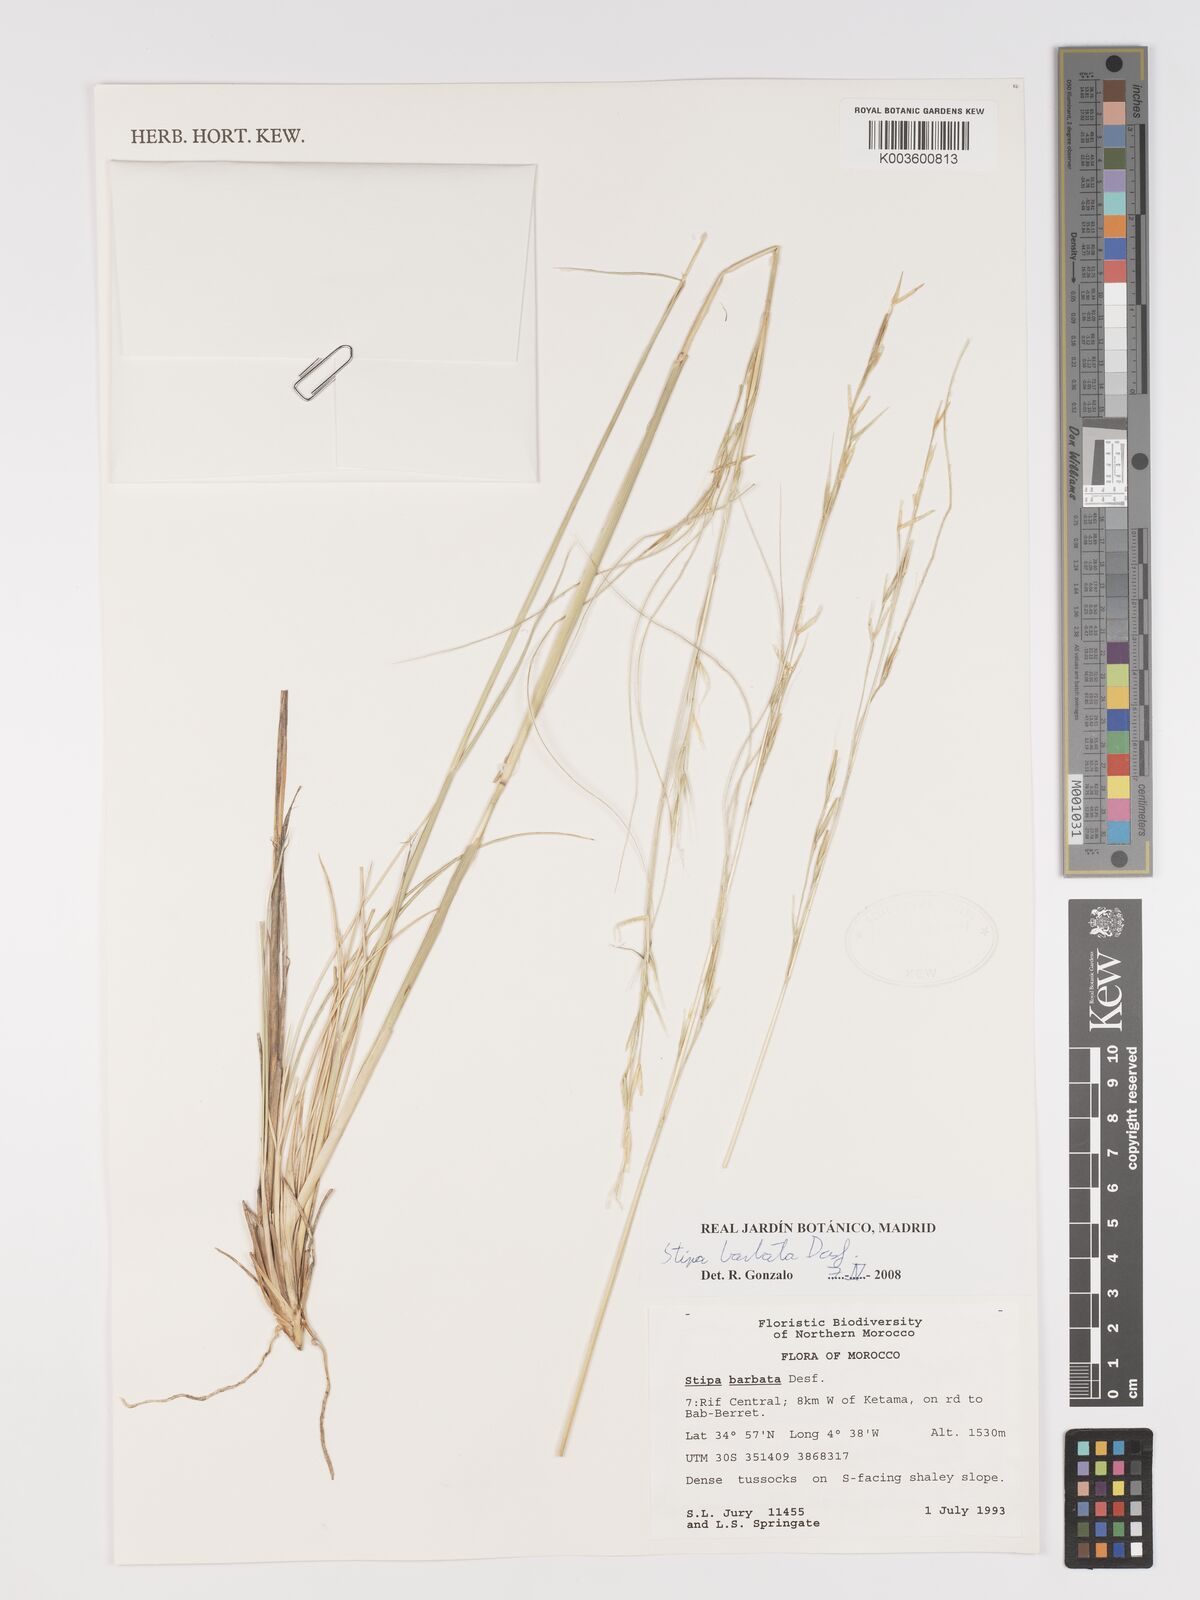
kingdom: Plantae
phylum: Tracheophyta
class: Liliopsida
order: Poales
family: Poaceae
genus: Stipa
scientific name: Stipa barbata
